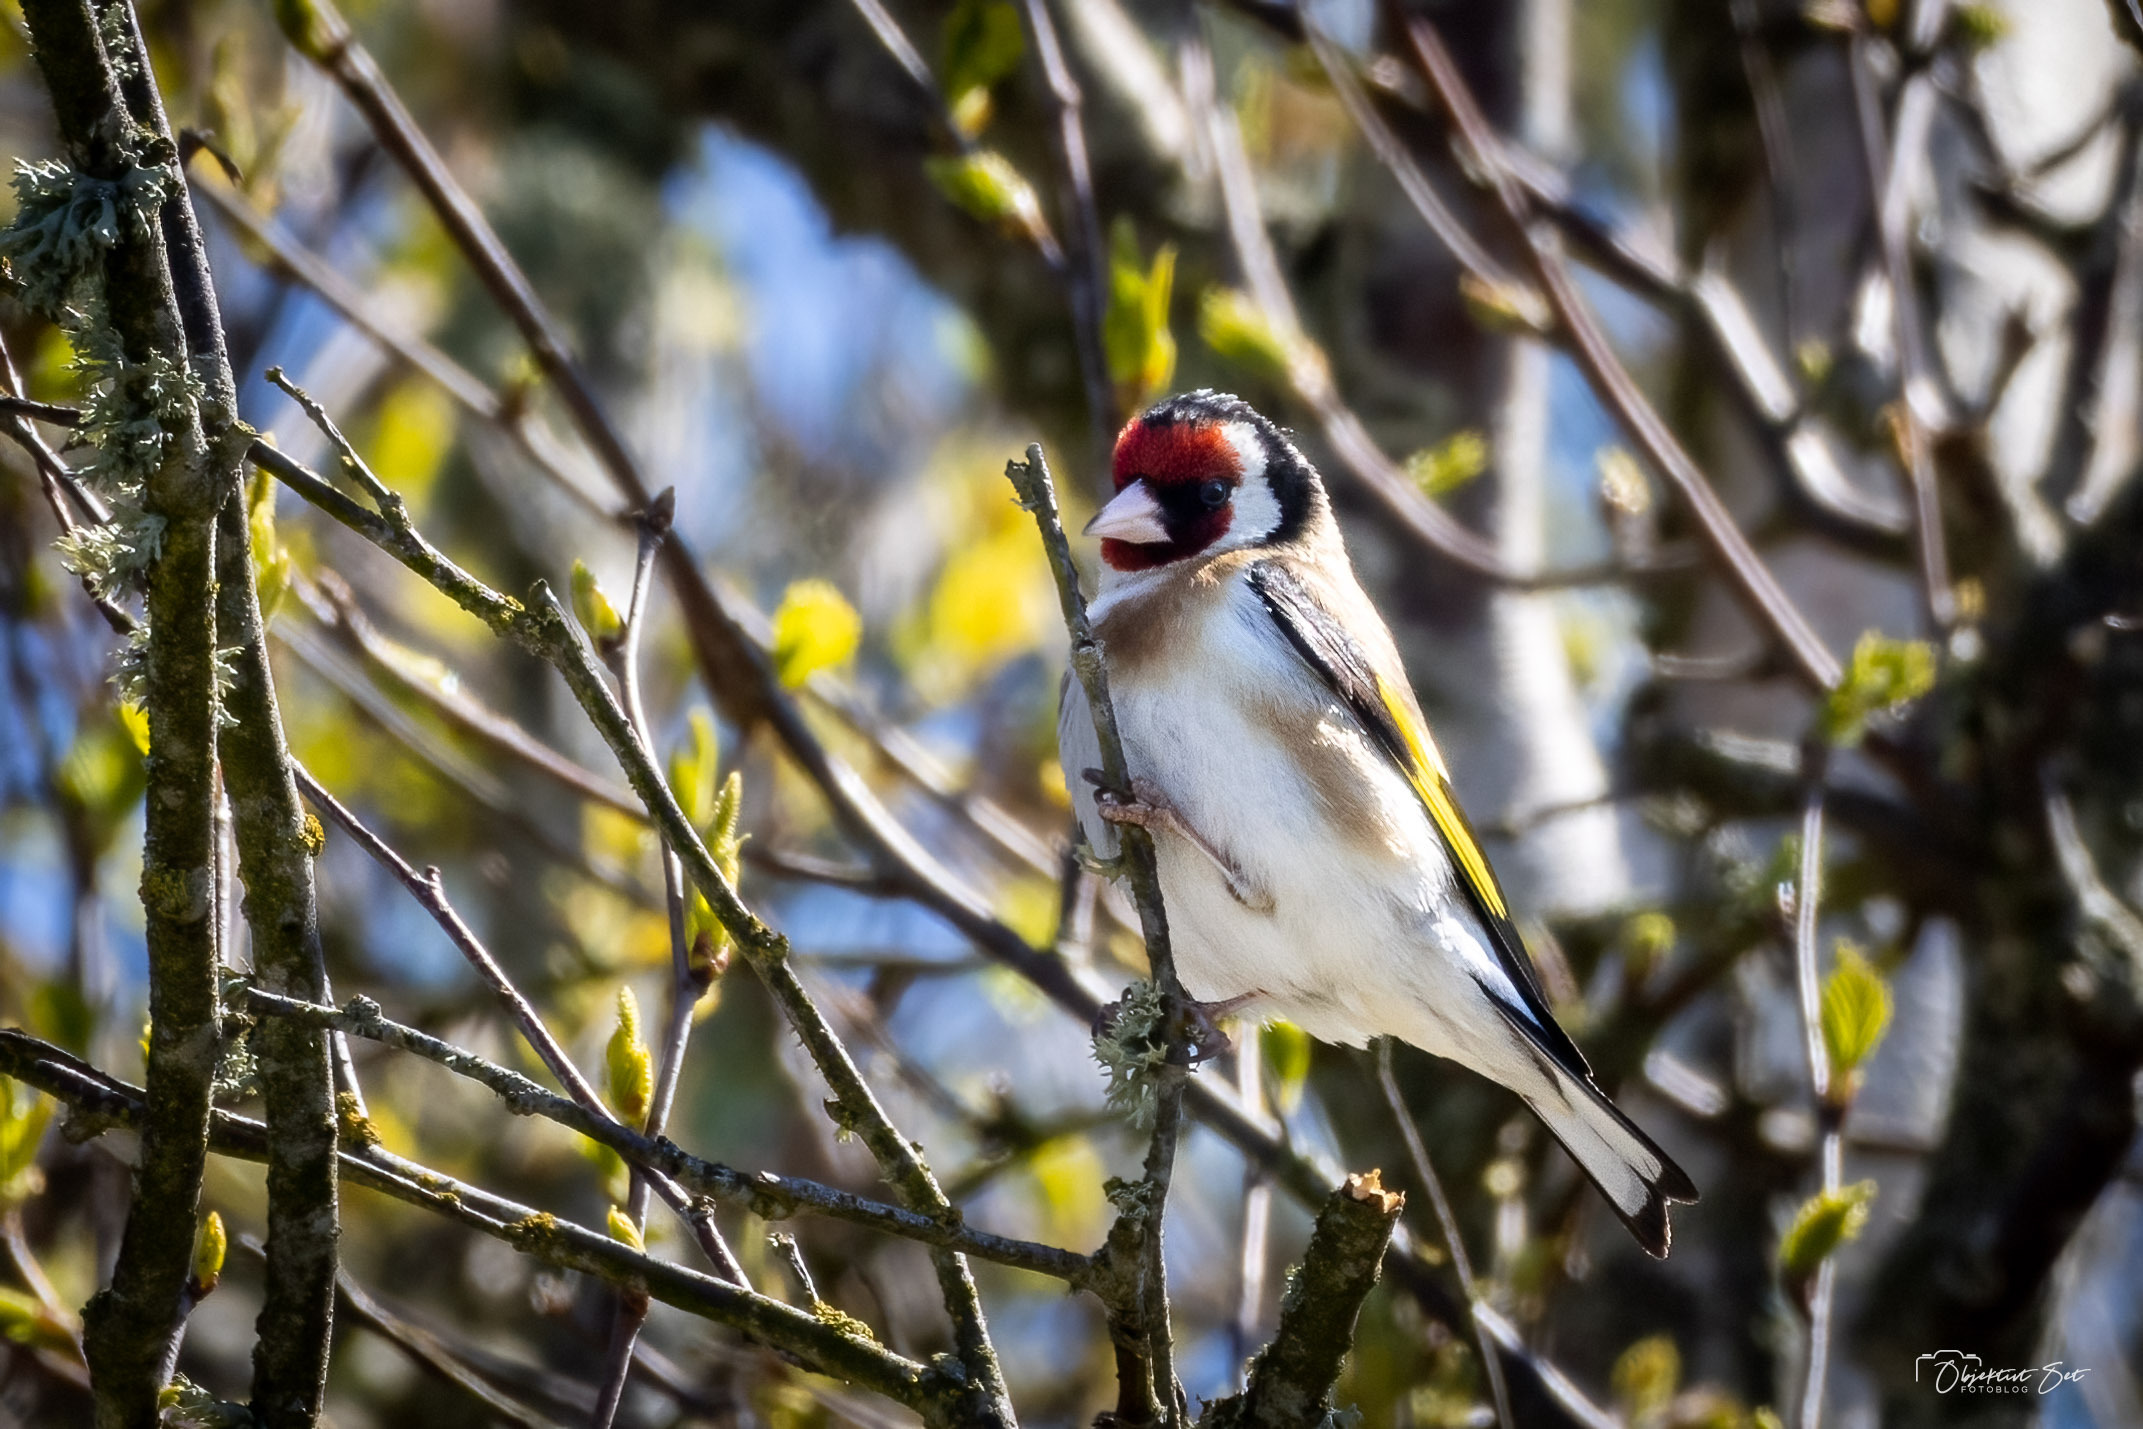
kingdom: Animalia
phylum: Chordata
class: Aves
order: Passeriformes
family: Fringillidae
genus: Carduelis
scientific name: Carduelis carduelis
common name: Stillits
